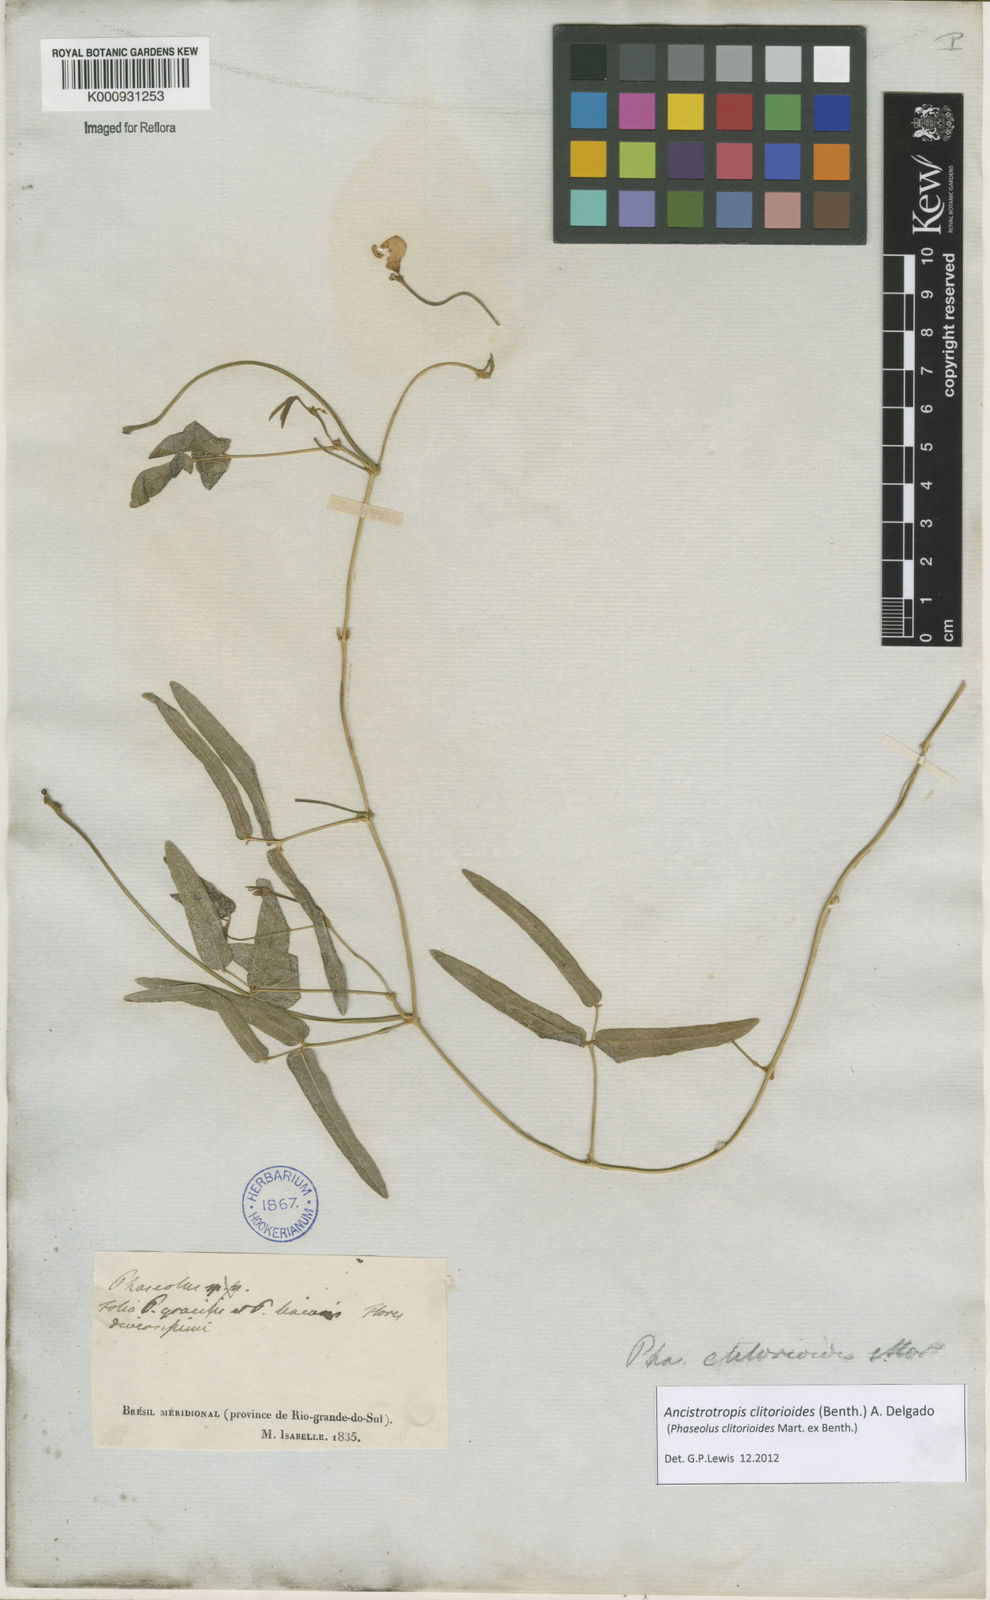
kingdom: Plantae
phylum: Tracheophyta
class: Magnoliopsida
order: Fabales
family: Fabaceae
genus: Ancistrotropis
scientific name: Ancistrotropis clitorioides
